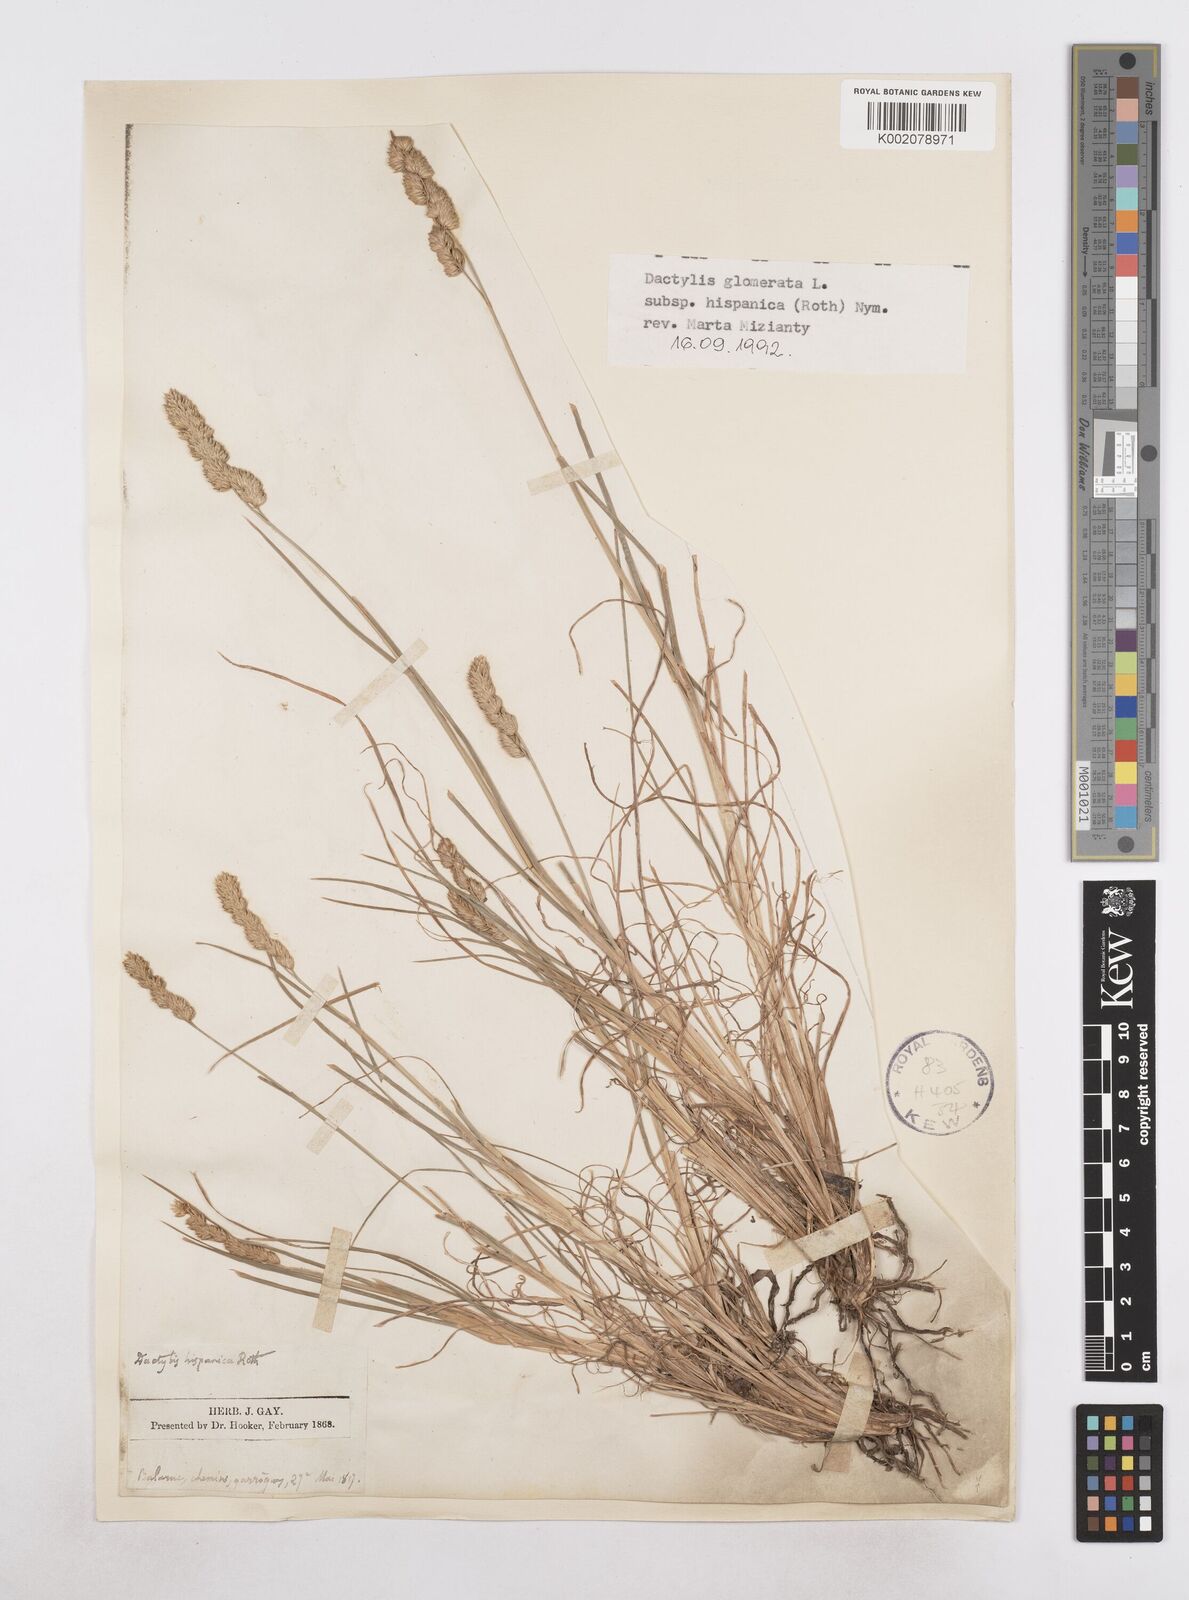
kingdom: Plantae
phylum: Tracheophyta
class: Liliopsida
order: Poales
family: Poaceae
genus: Dactylis
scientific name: Dactylis glomerata
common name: Orchardgrass
